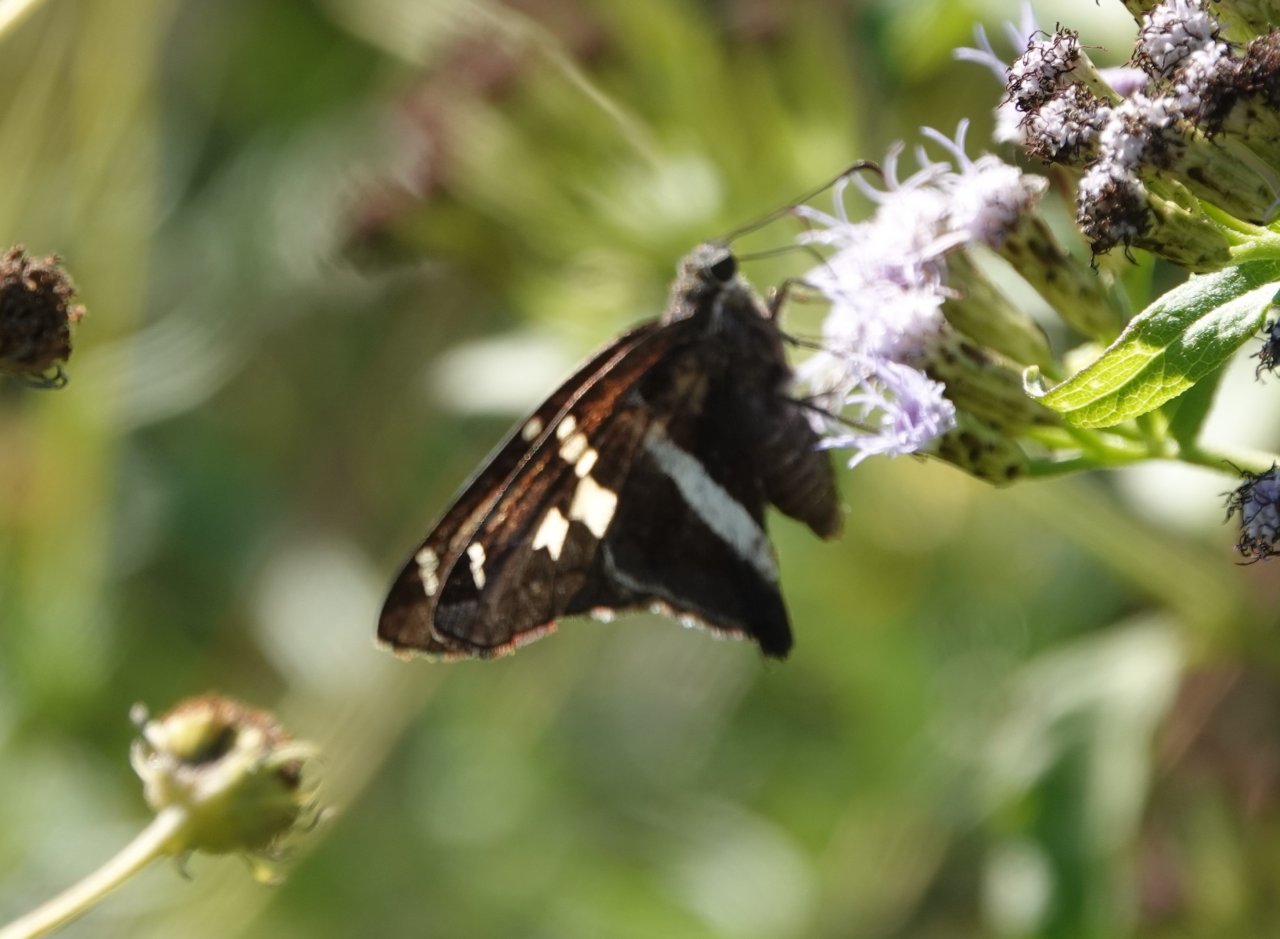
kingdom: Animalia
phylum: Arthropoda
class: Insecta
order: Lepidoptera
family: Hesperiidae
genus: Chioides
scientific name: Chioides catillus
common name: White-striped Longtail
